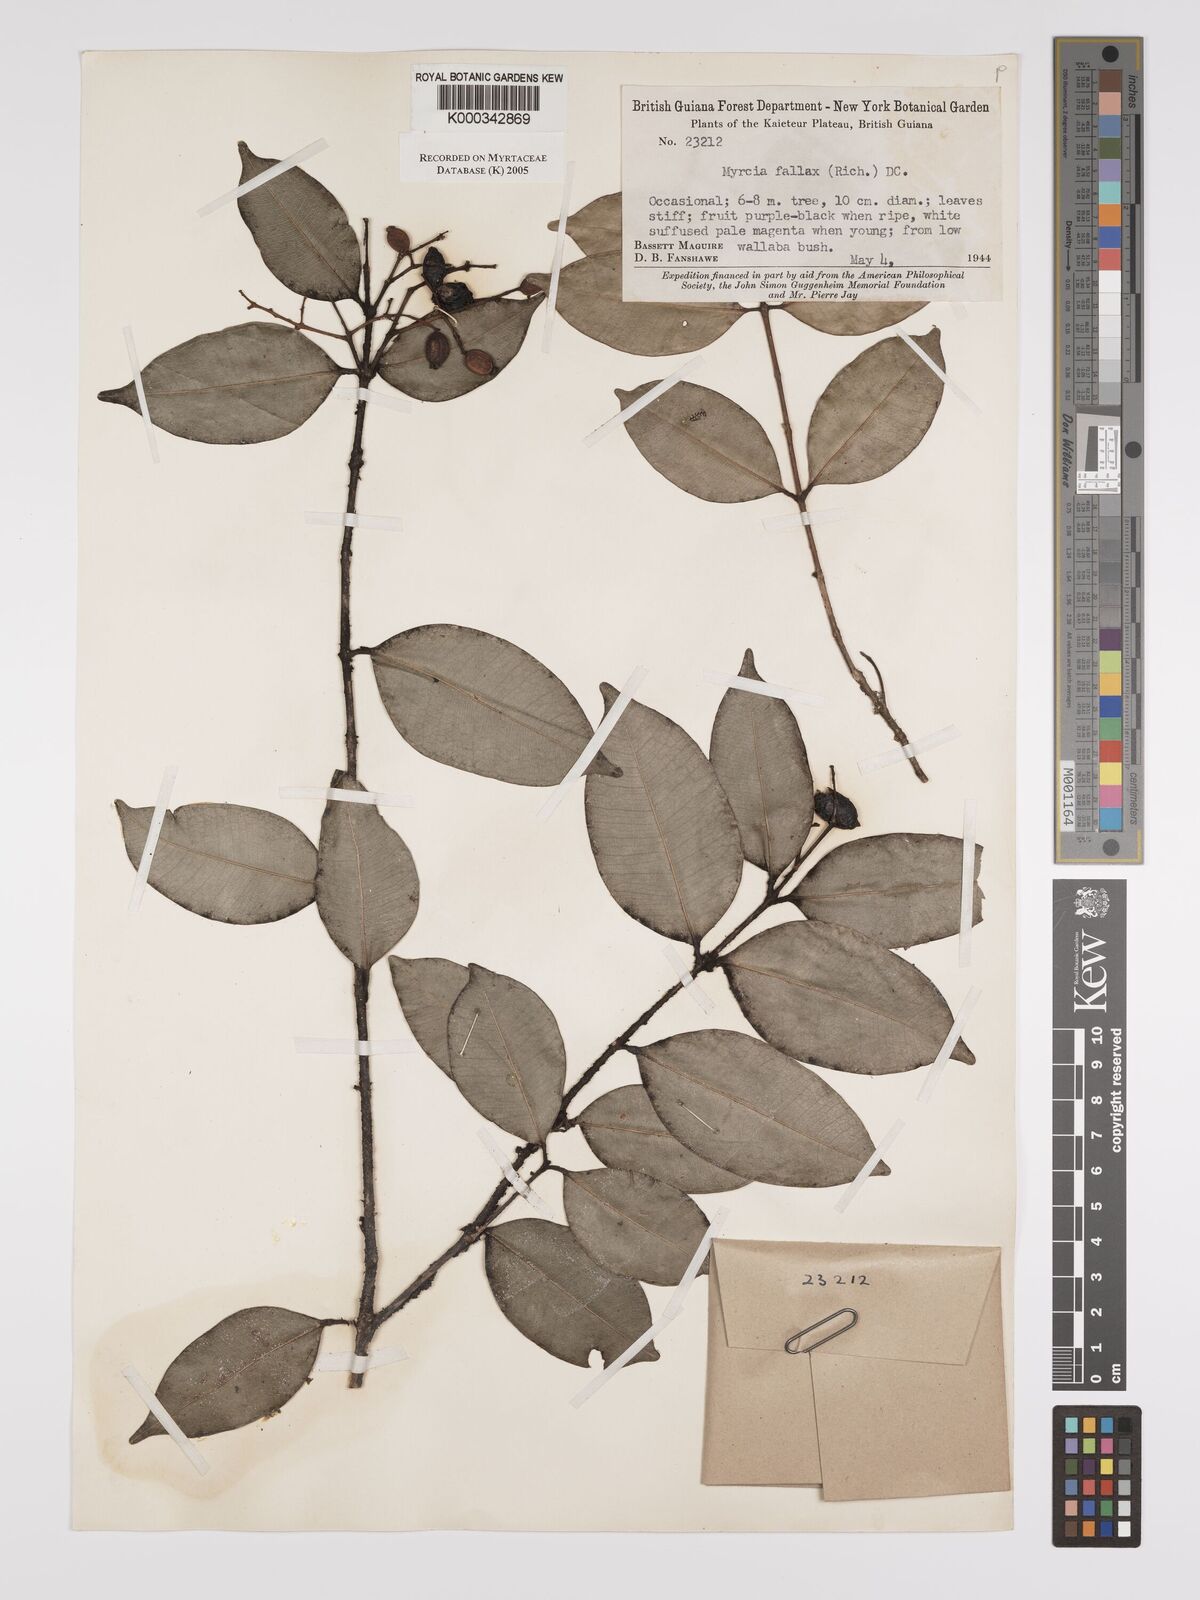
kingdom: Plantae
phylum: Tracheophyta
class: Magnoliopsida
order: Myrtales
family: Myrtaceae
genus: Myrcia
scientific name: Myrcia splendens
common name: Surinam cherry
